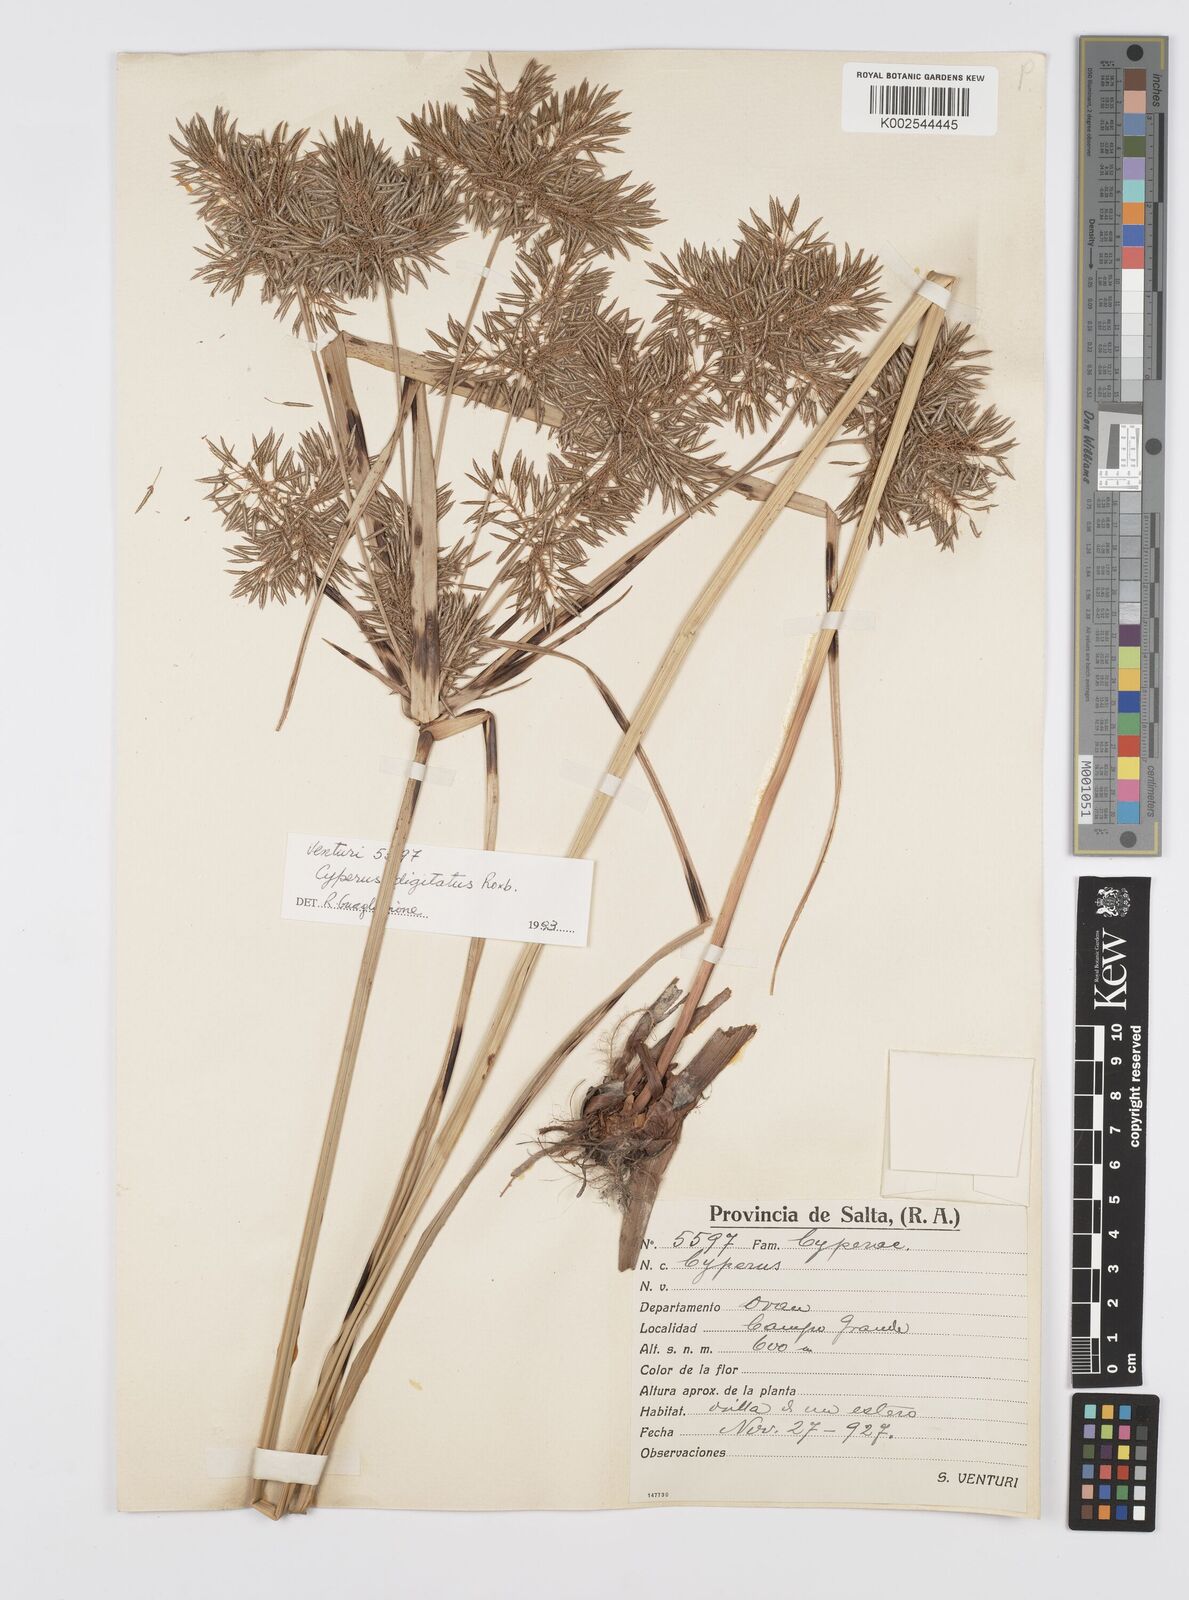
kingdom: Plantae
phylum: Tracheophyta
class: Liliopsida
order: Poales
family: Cyperaceae
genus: Cyperus
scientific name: Cyperus
